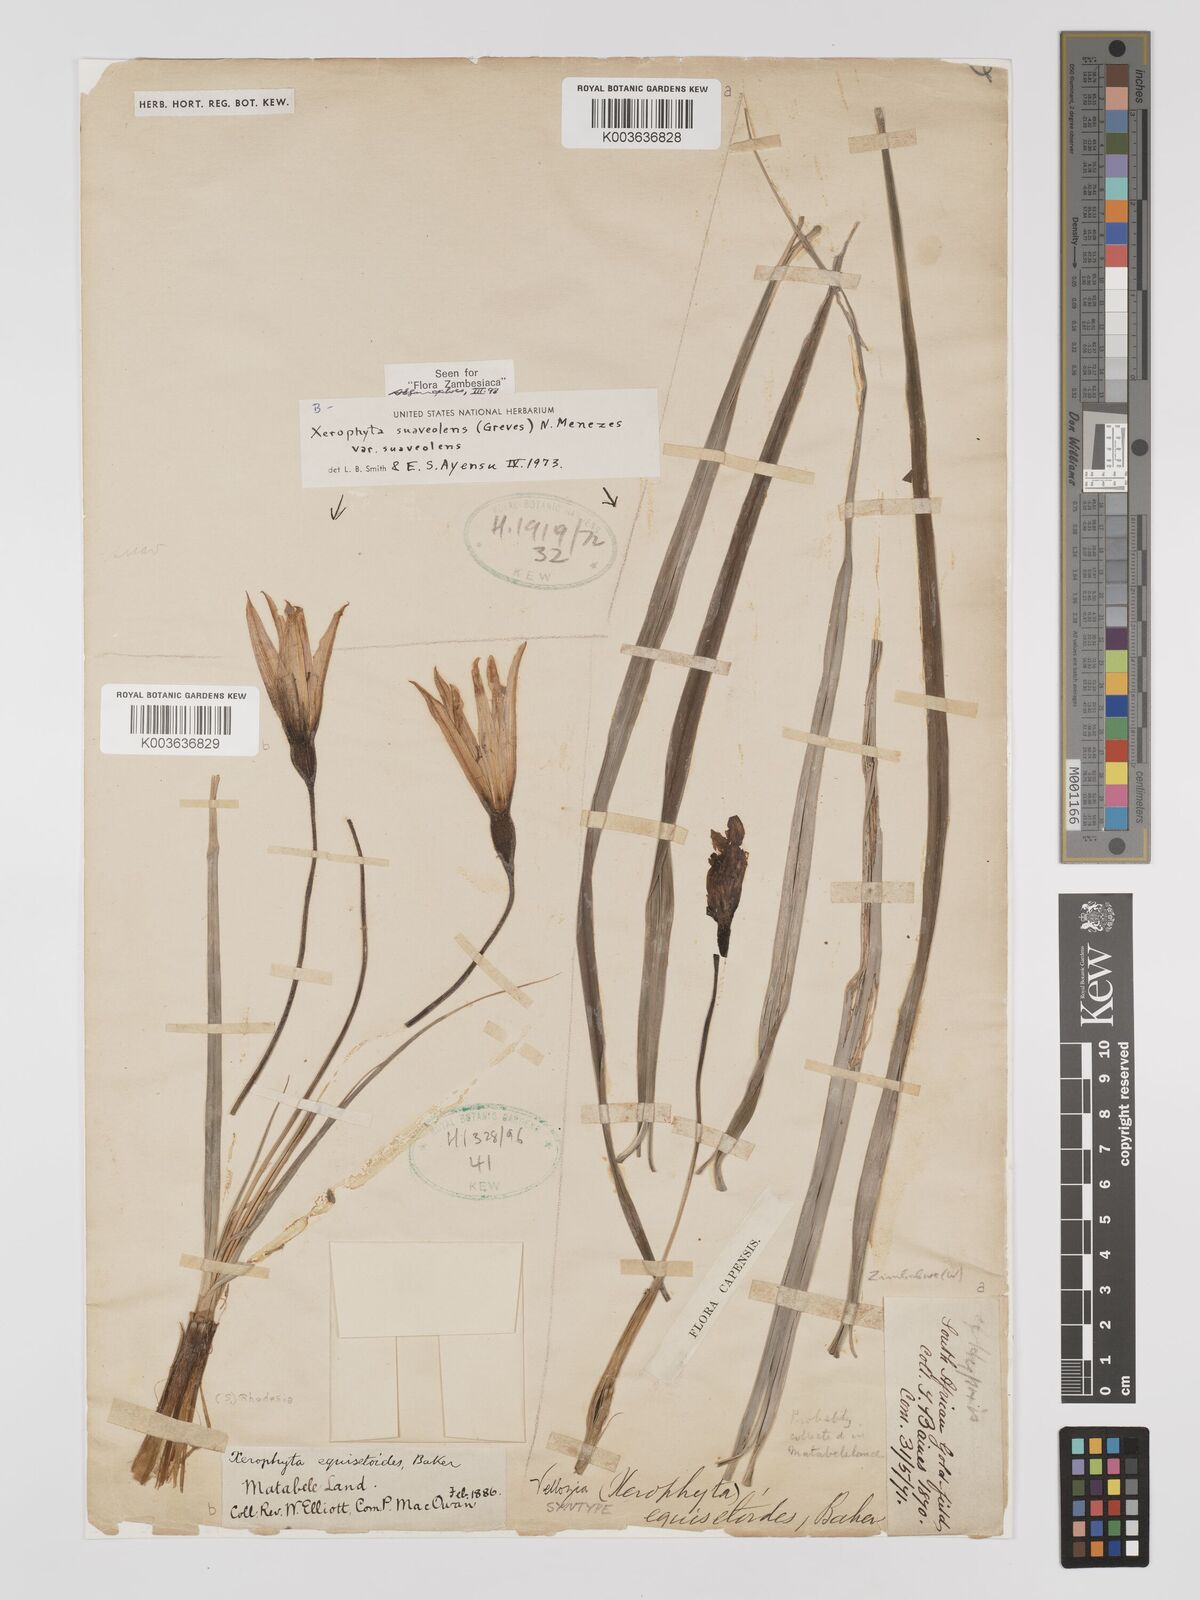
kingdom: Plantae
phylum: Tracheophyta
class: Liliopsida
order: Pandanales
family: Velloziaceae
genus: Xerophyta
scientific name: Xerophyta suaveolens
